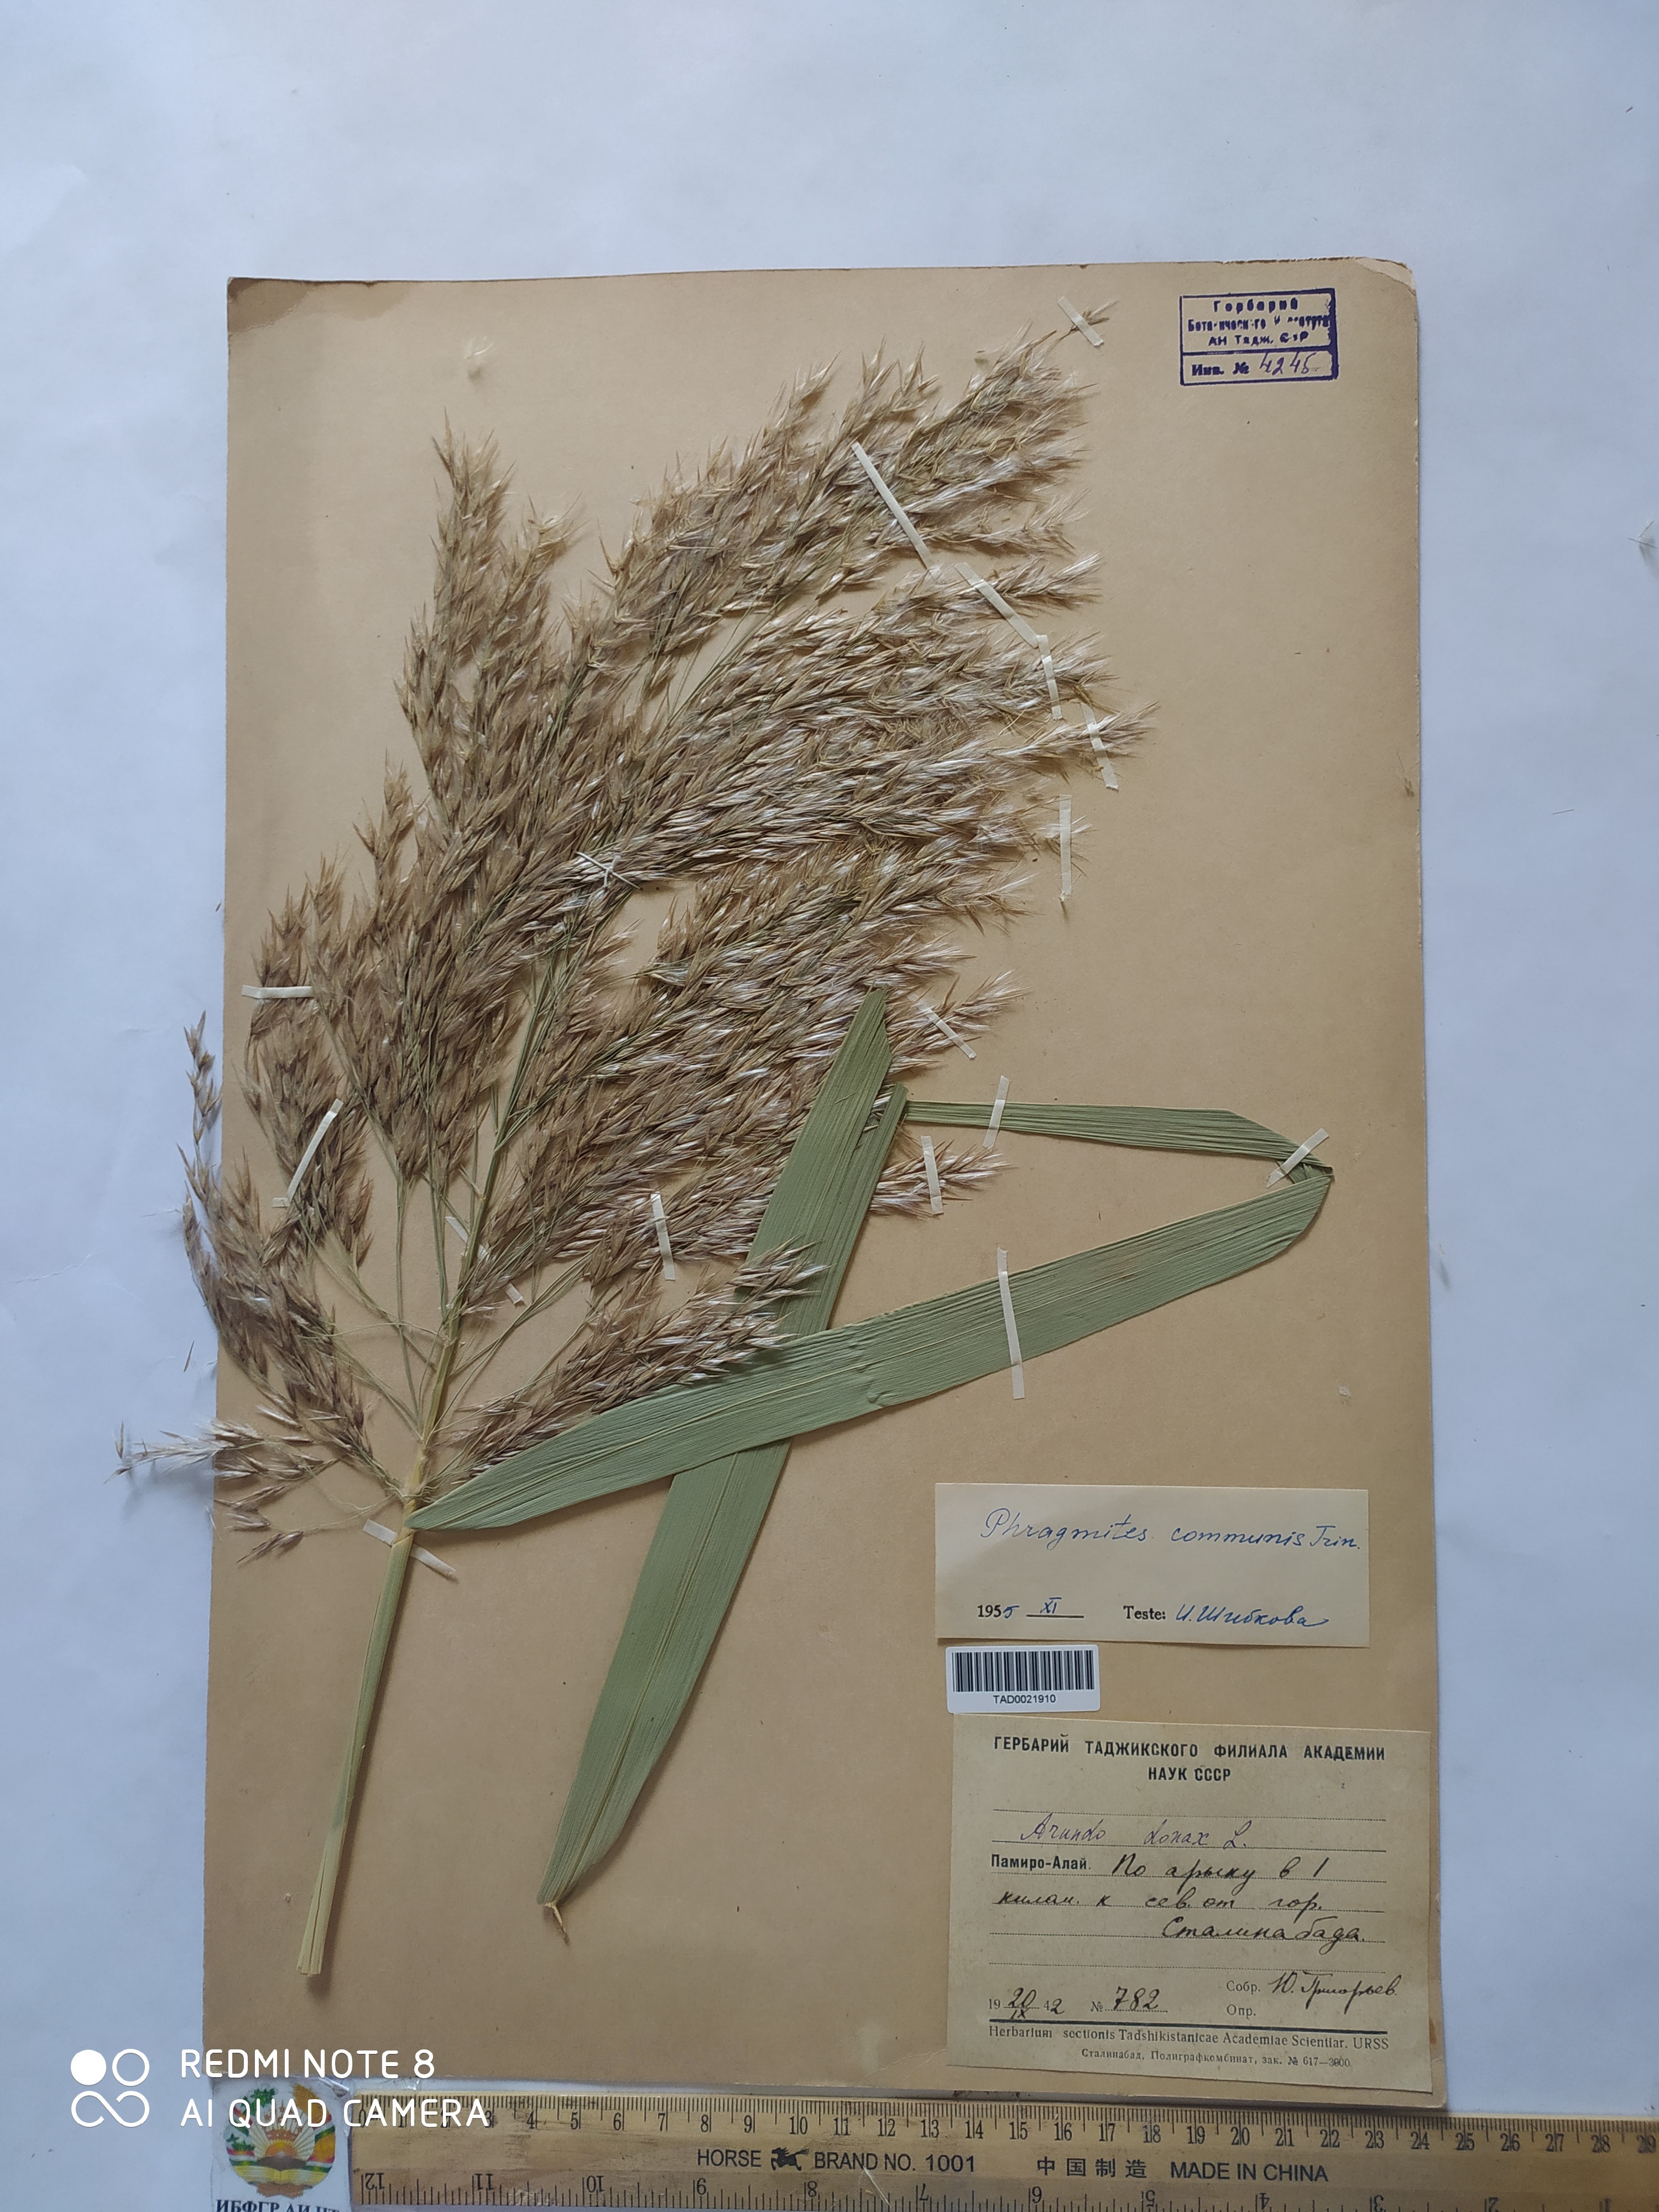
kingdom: Plantae
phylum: Tracheophyta
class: Liliopsida
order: Poales
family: Poaceae
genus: Phragmites
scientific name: Phragmites australis
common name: Common reed
